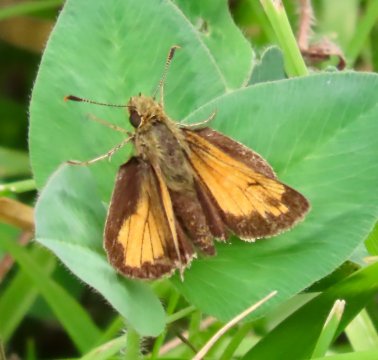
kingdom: Animalia
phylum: Arthropoda
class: Insecta
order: Lepidoptera
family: Hesperiidae
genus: Lon
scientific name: Lon hobomok
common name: Hobomok Skipper
